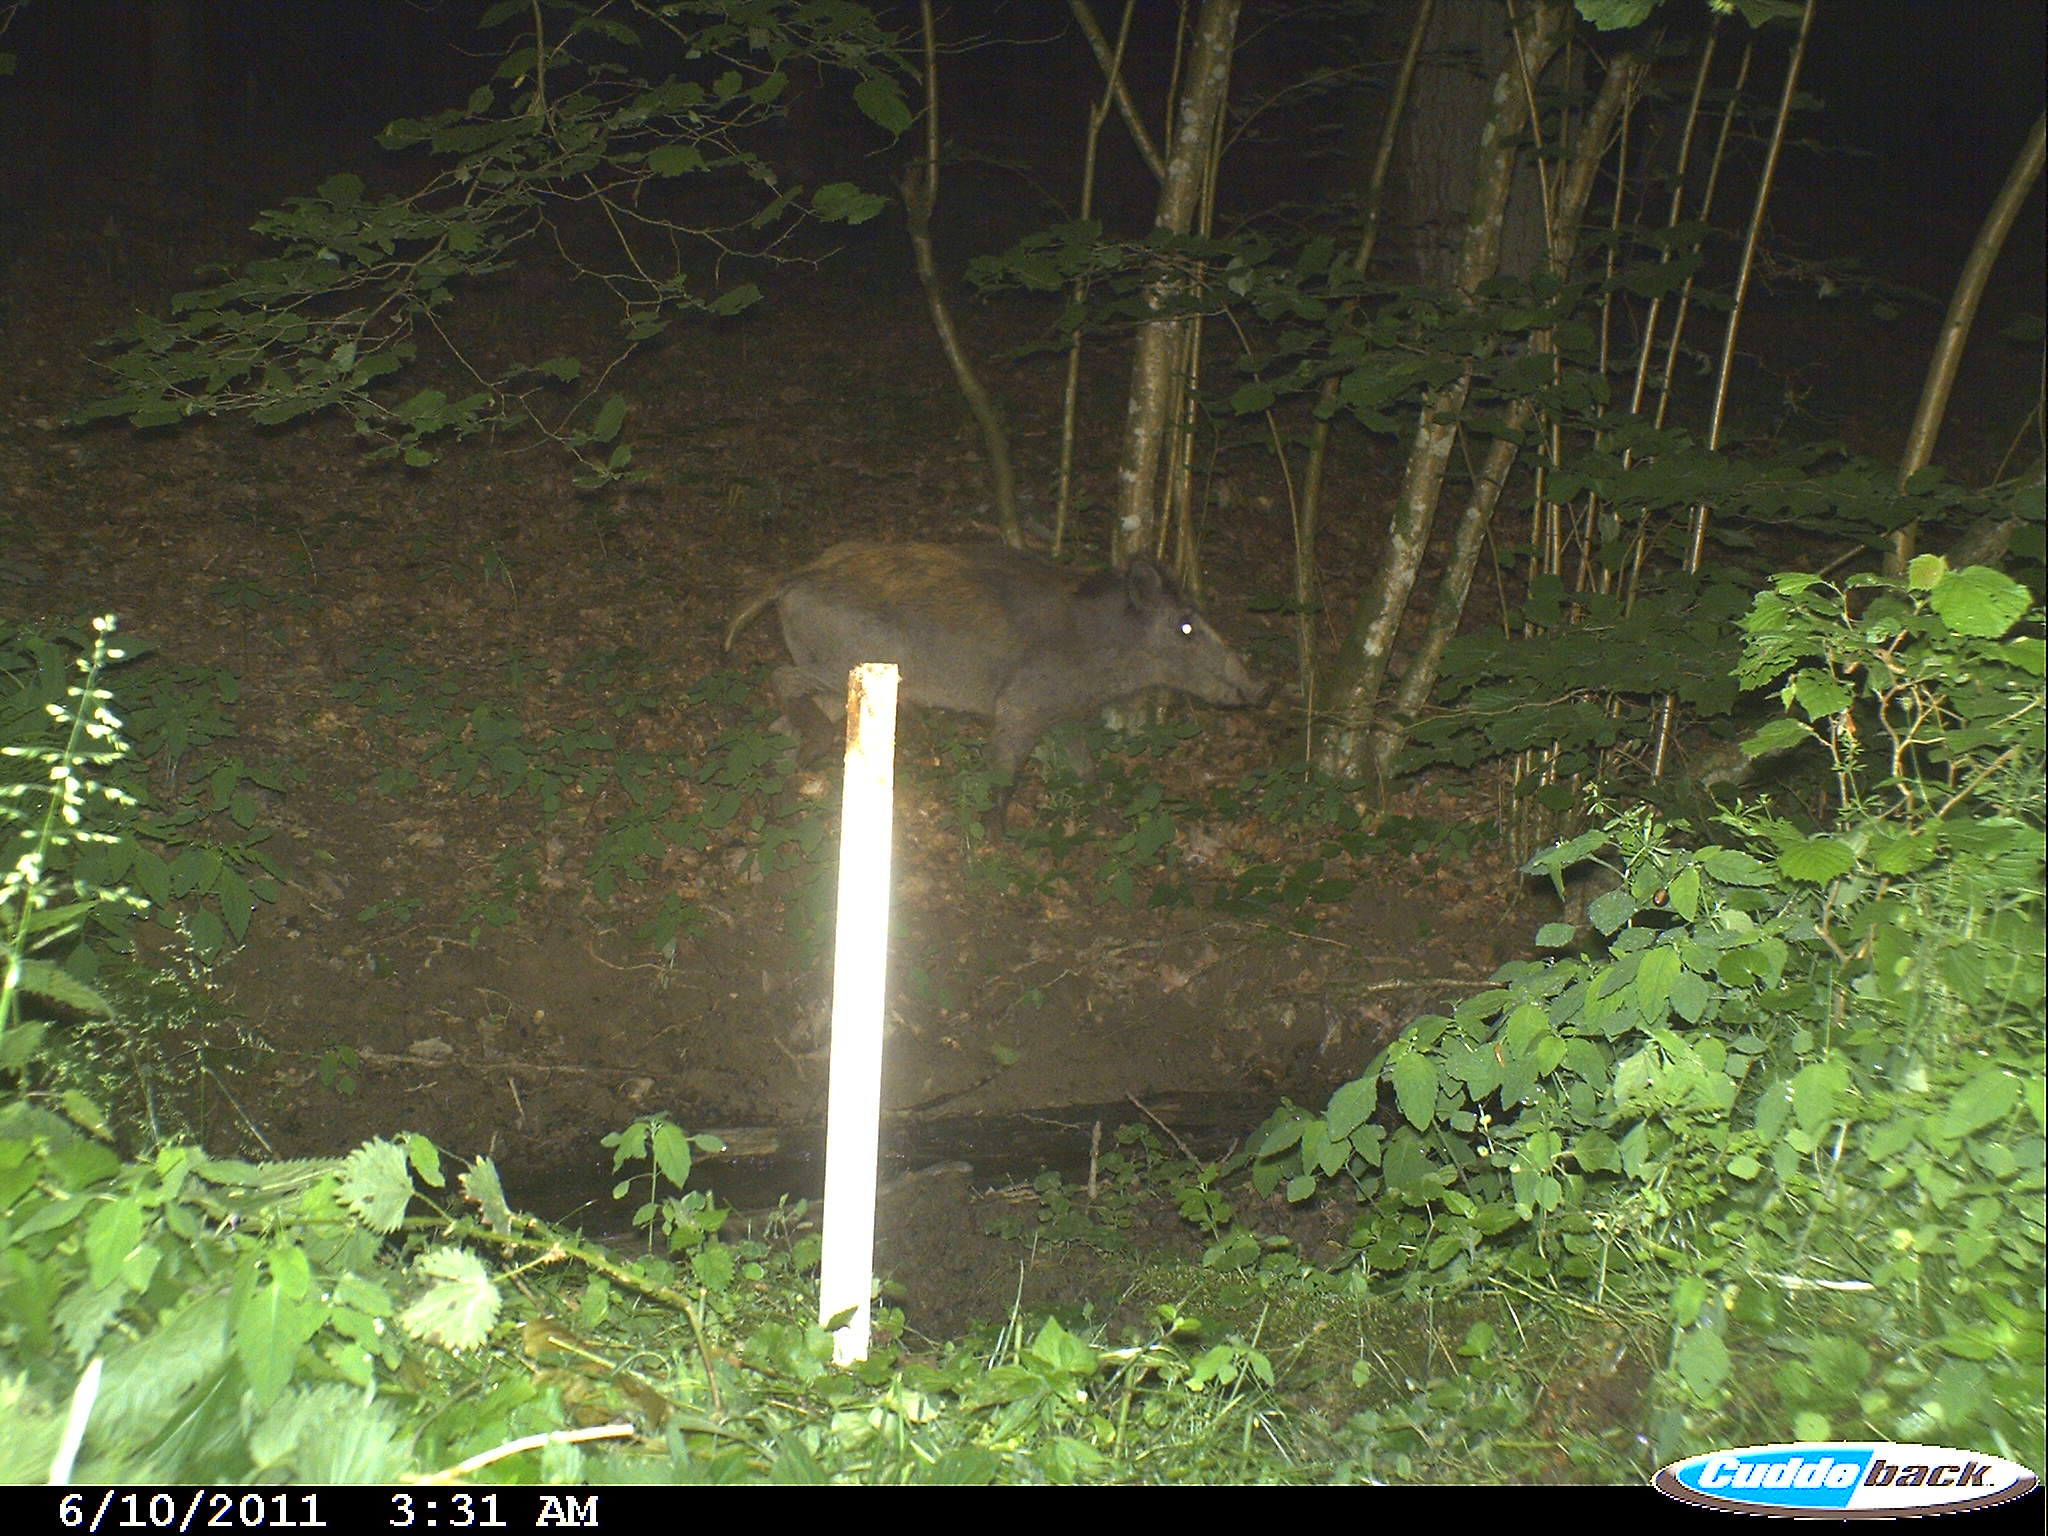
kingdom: Animalia
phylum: Chordata
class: Mammalia
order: Artiodactyla
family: Suidae
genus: Sus
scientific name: Sus scrofa
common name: Wild boar
